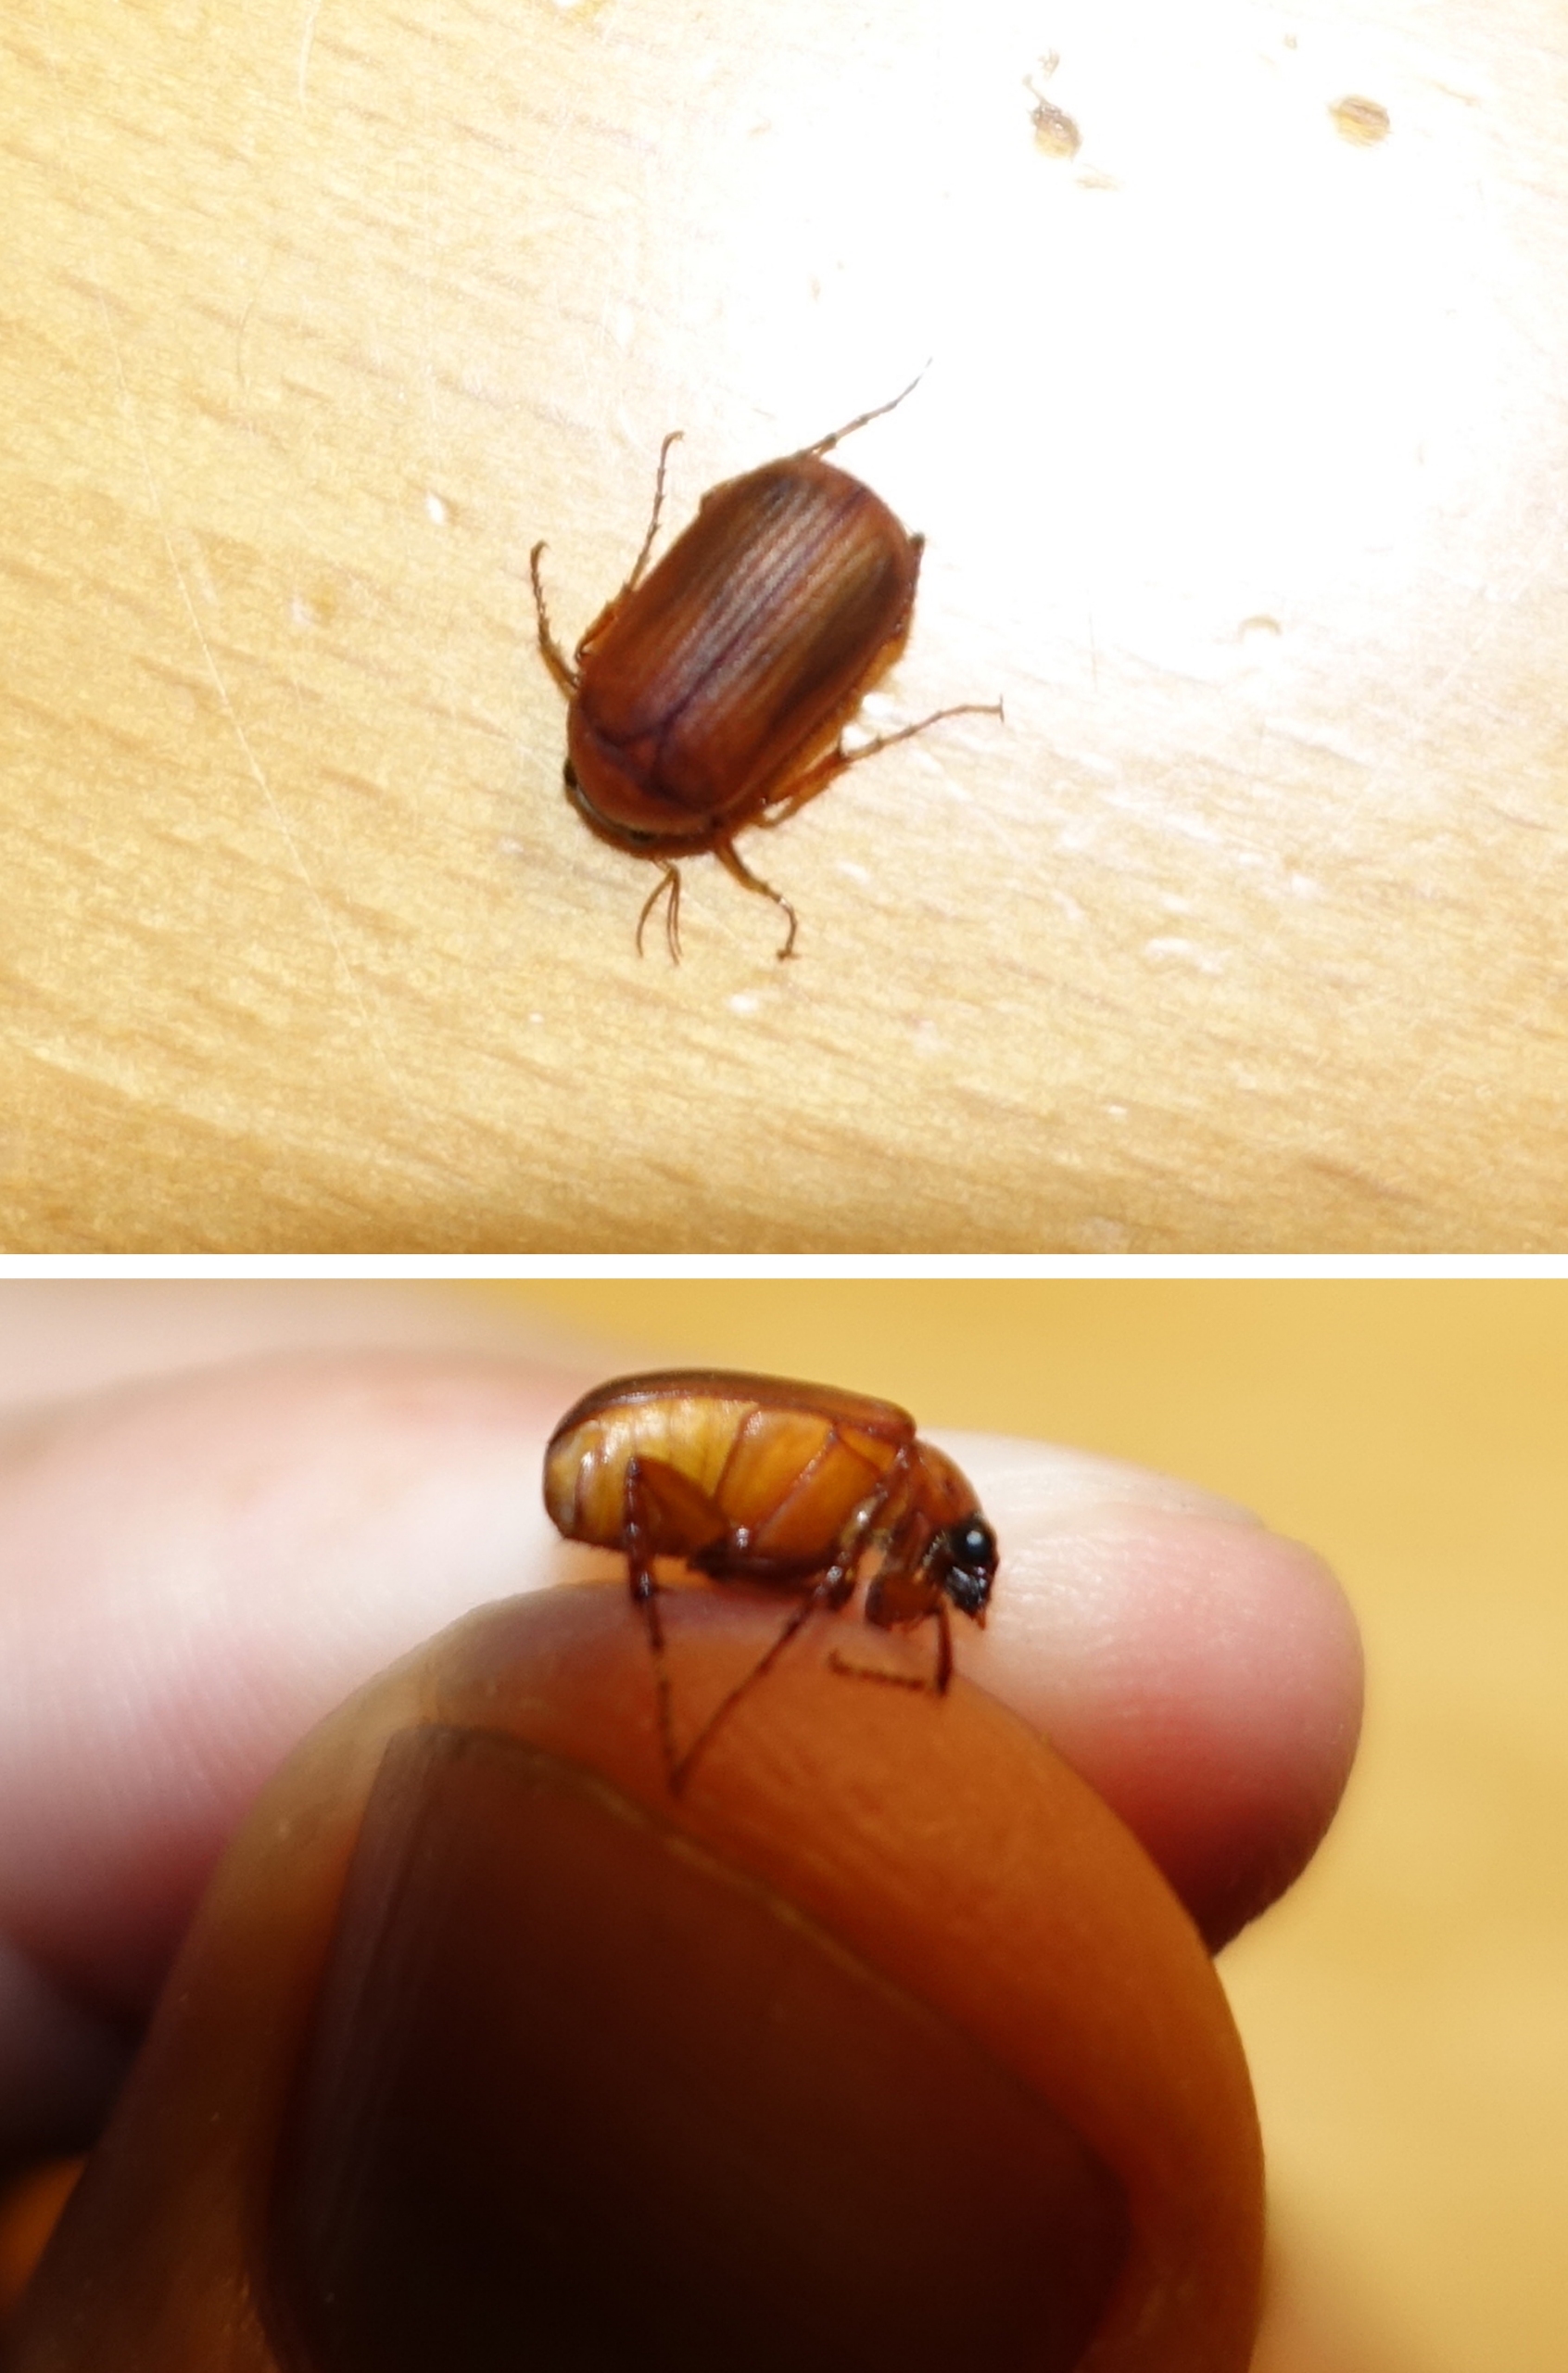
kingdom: Animalia
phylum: Arthropoda
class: Insecta
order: Coleoptera
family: Scarabaeidae
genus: Serica
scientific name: Serica brunnea
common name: Natoldenborre
